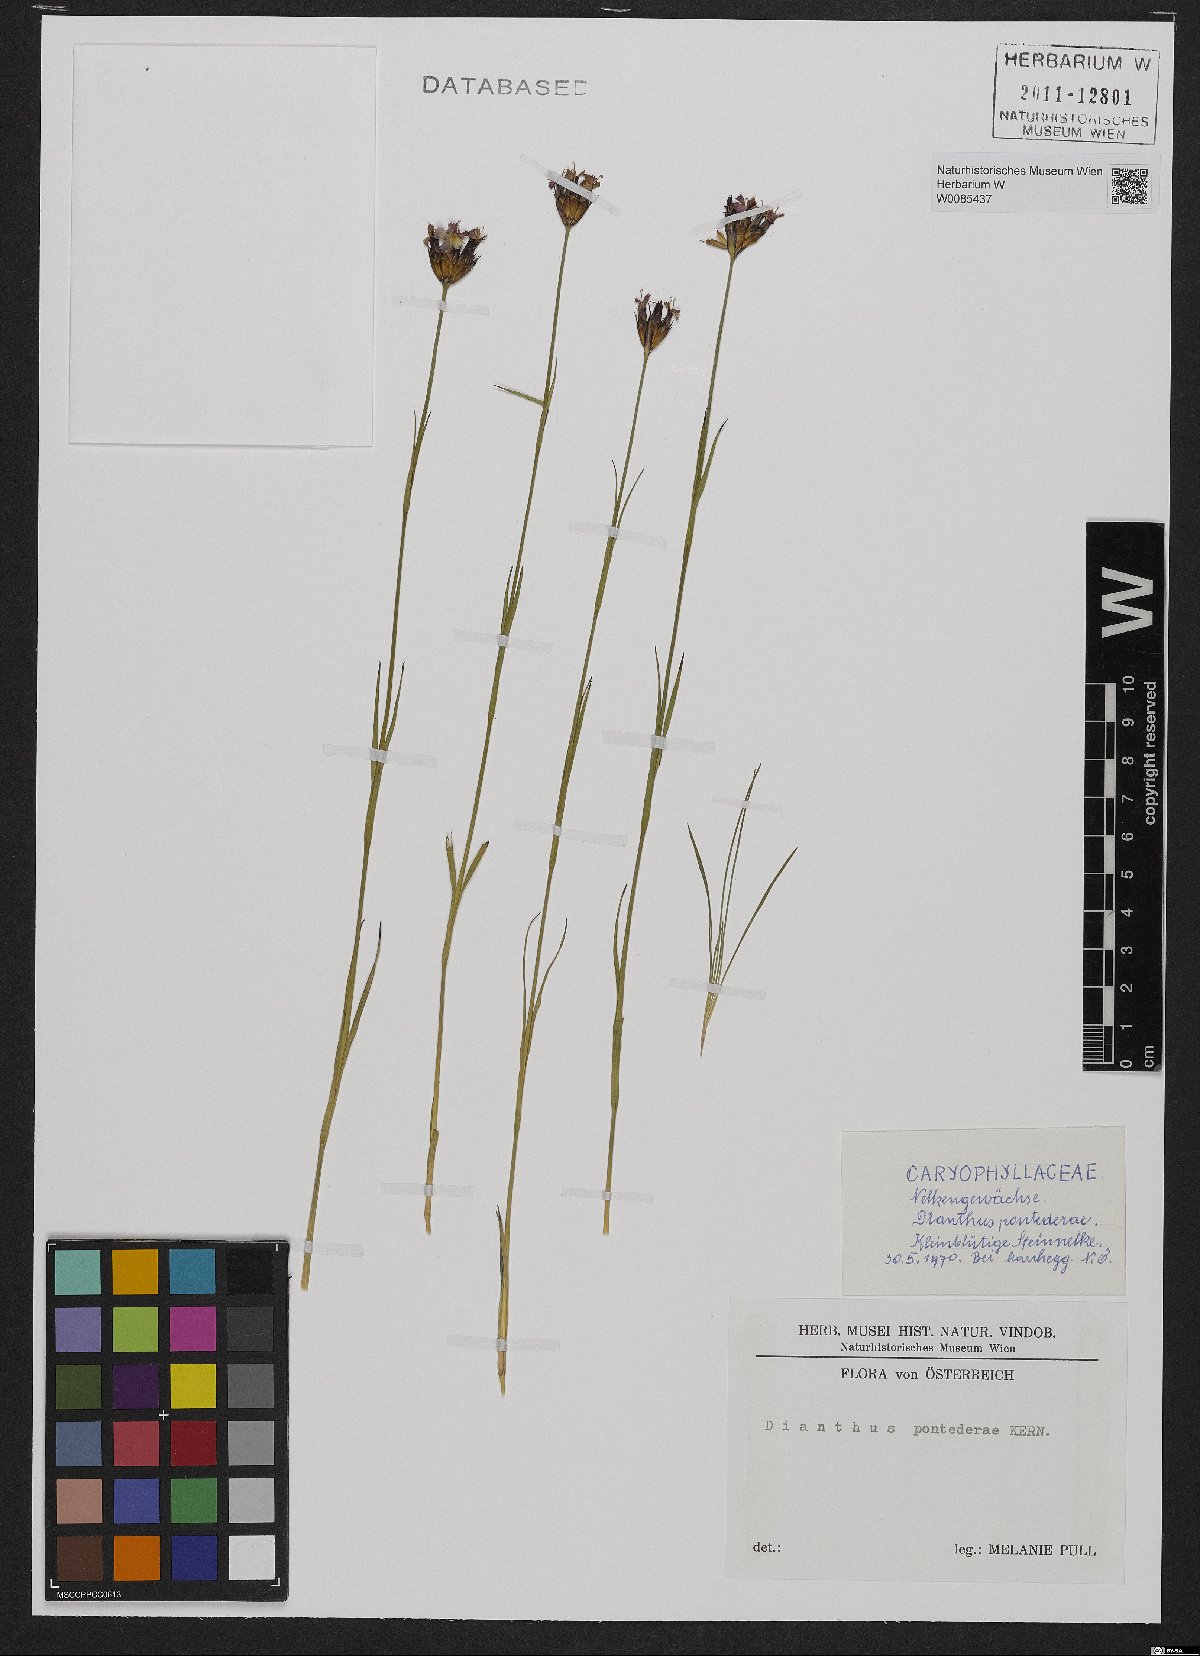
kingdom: Plantae
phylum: Tracheophyta
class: Magnoliopsida
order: Caryophyllales
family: Caryophyllaceae
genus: Dianthus
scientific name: Dianthus pontederae
